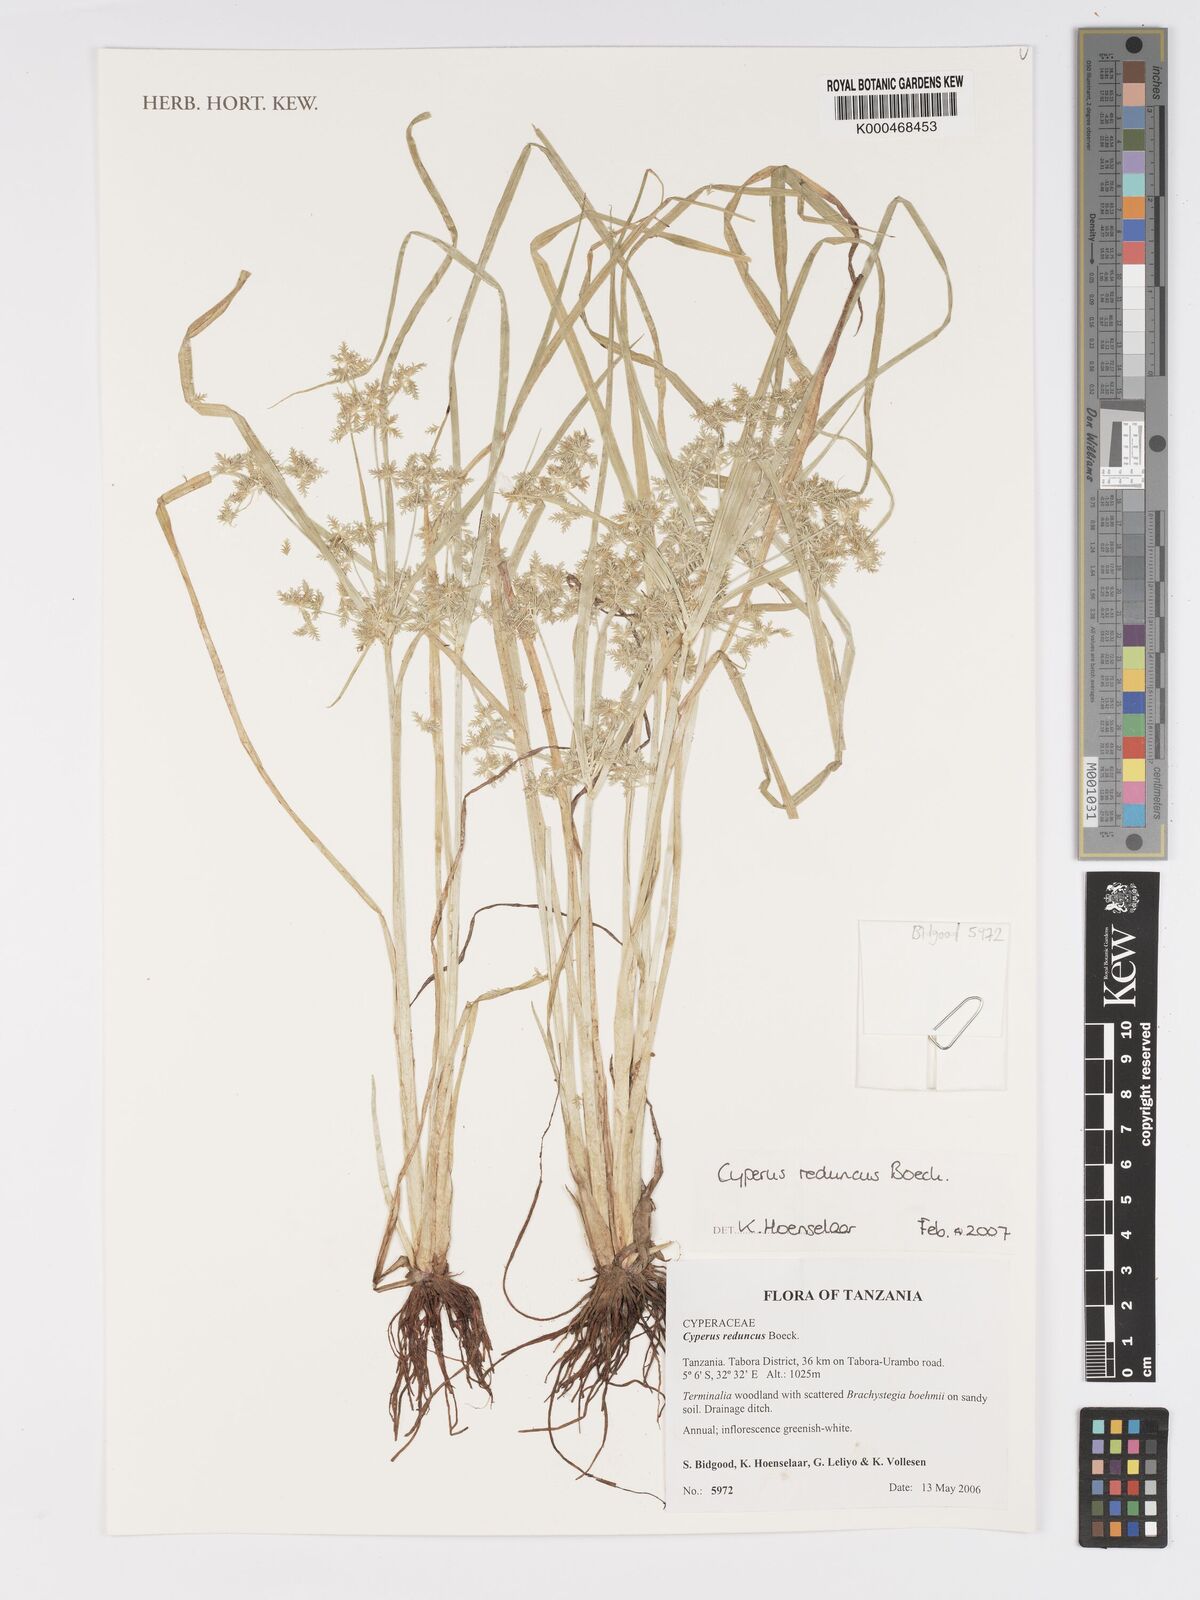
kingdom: Plantae
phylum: Tracheophyta
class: Liliopsida
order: Poales
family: Cyperaceae
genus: Cyperus
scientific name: Cyperus reduncus
